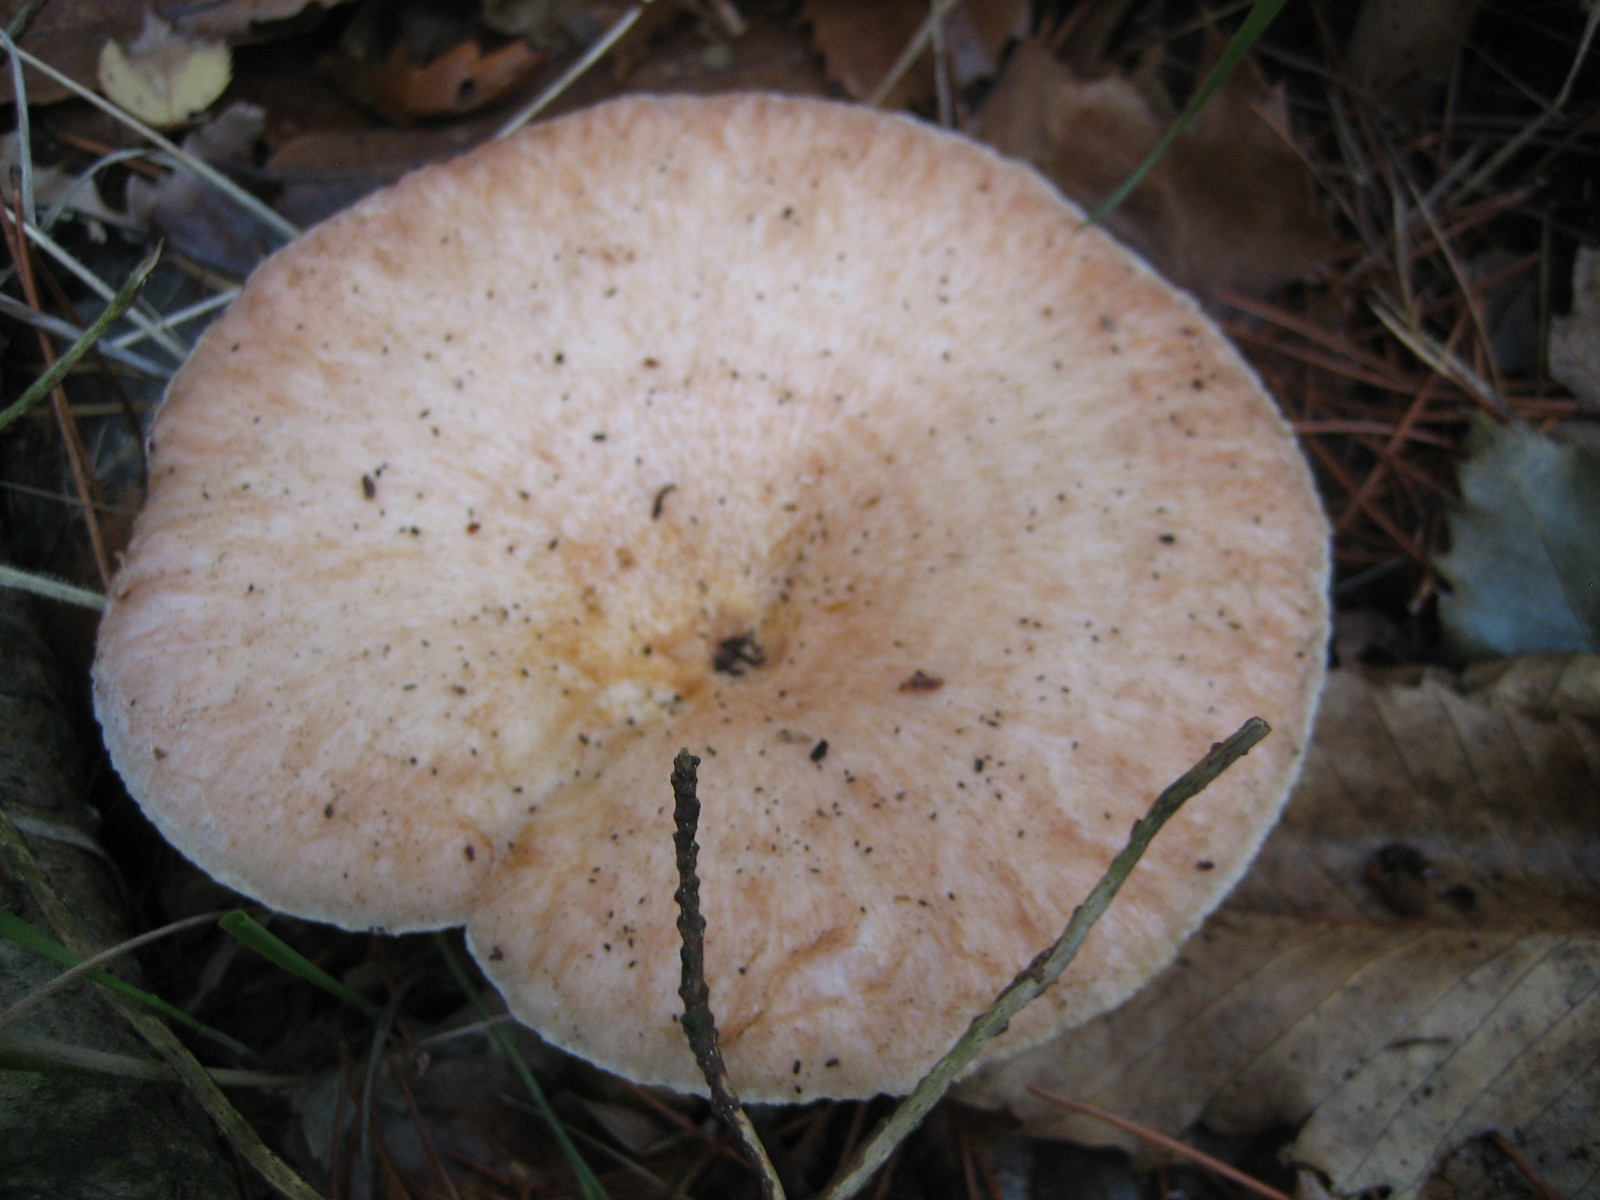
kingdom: Fungi
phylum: Basidiomycota
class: Agaricomycetes
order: Russulales
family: Russulaceae
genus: Lactarius
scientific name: Lactarius pubescens
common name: dunet mælkehat
